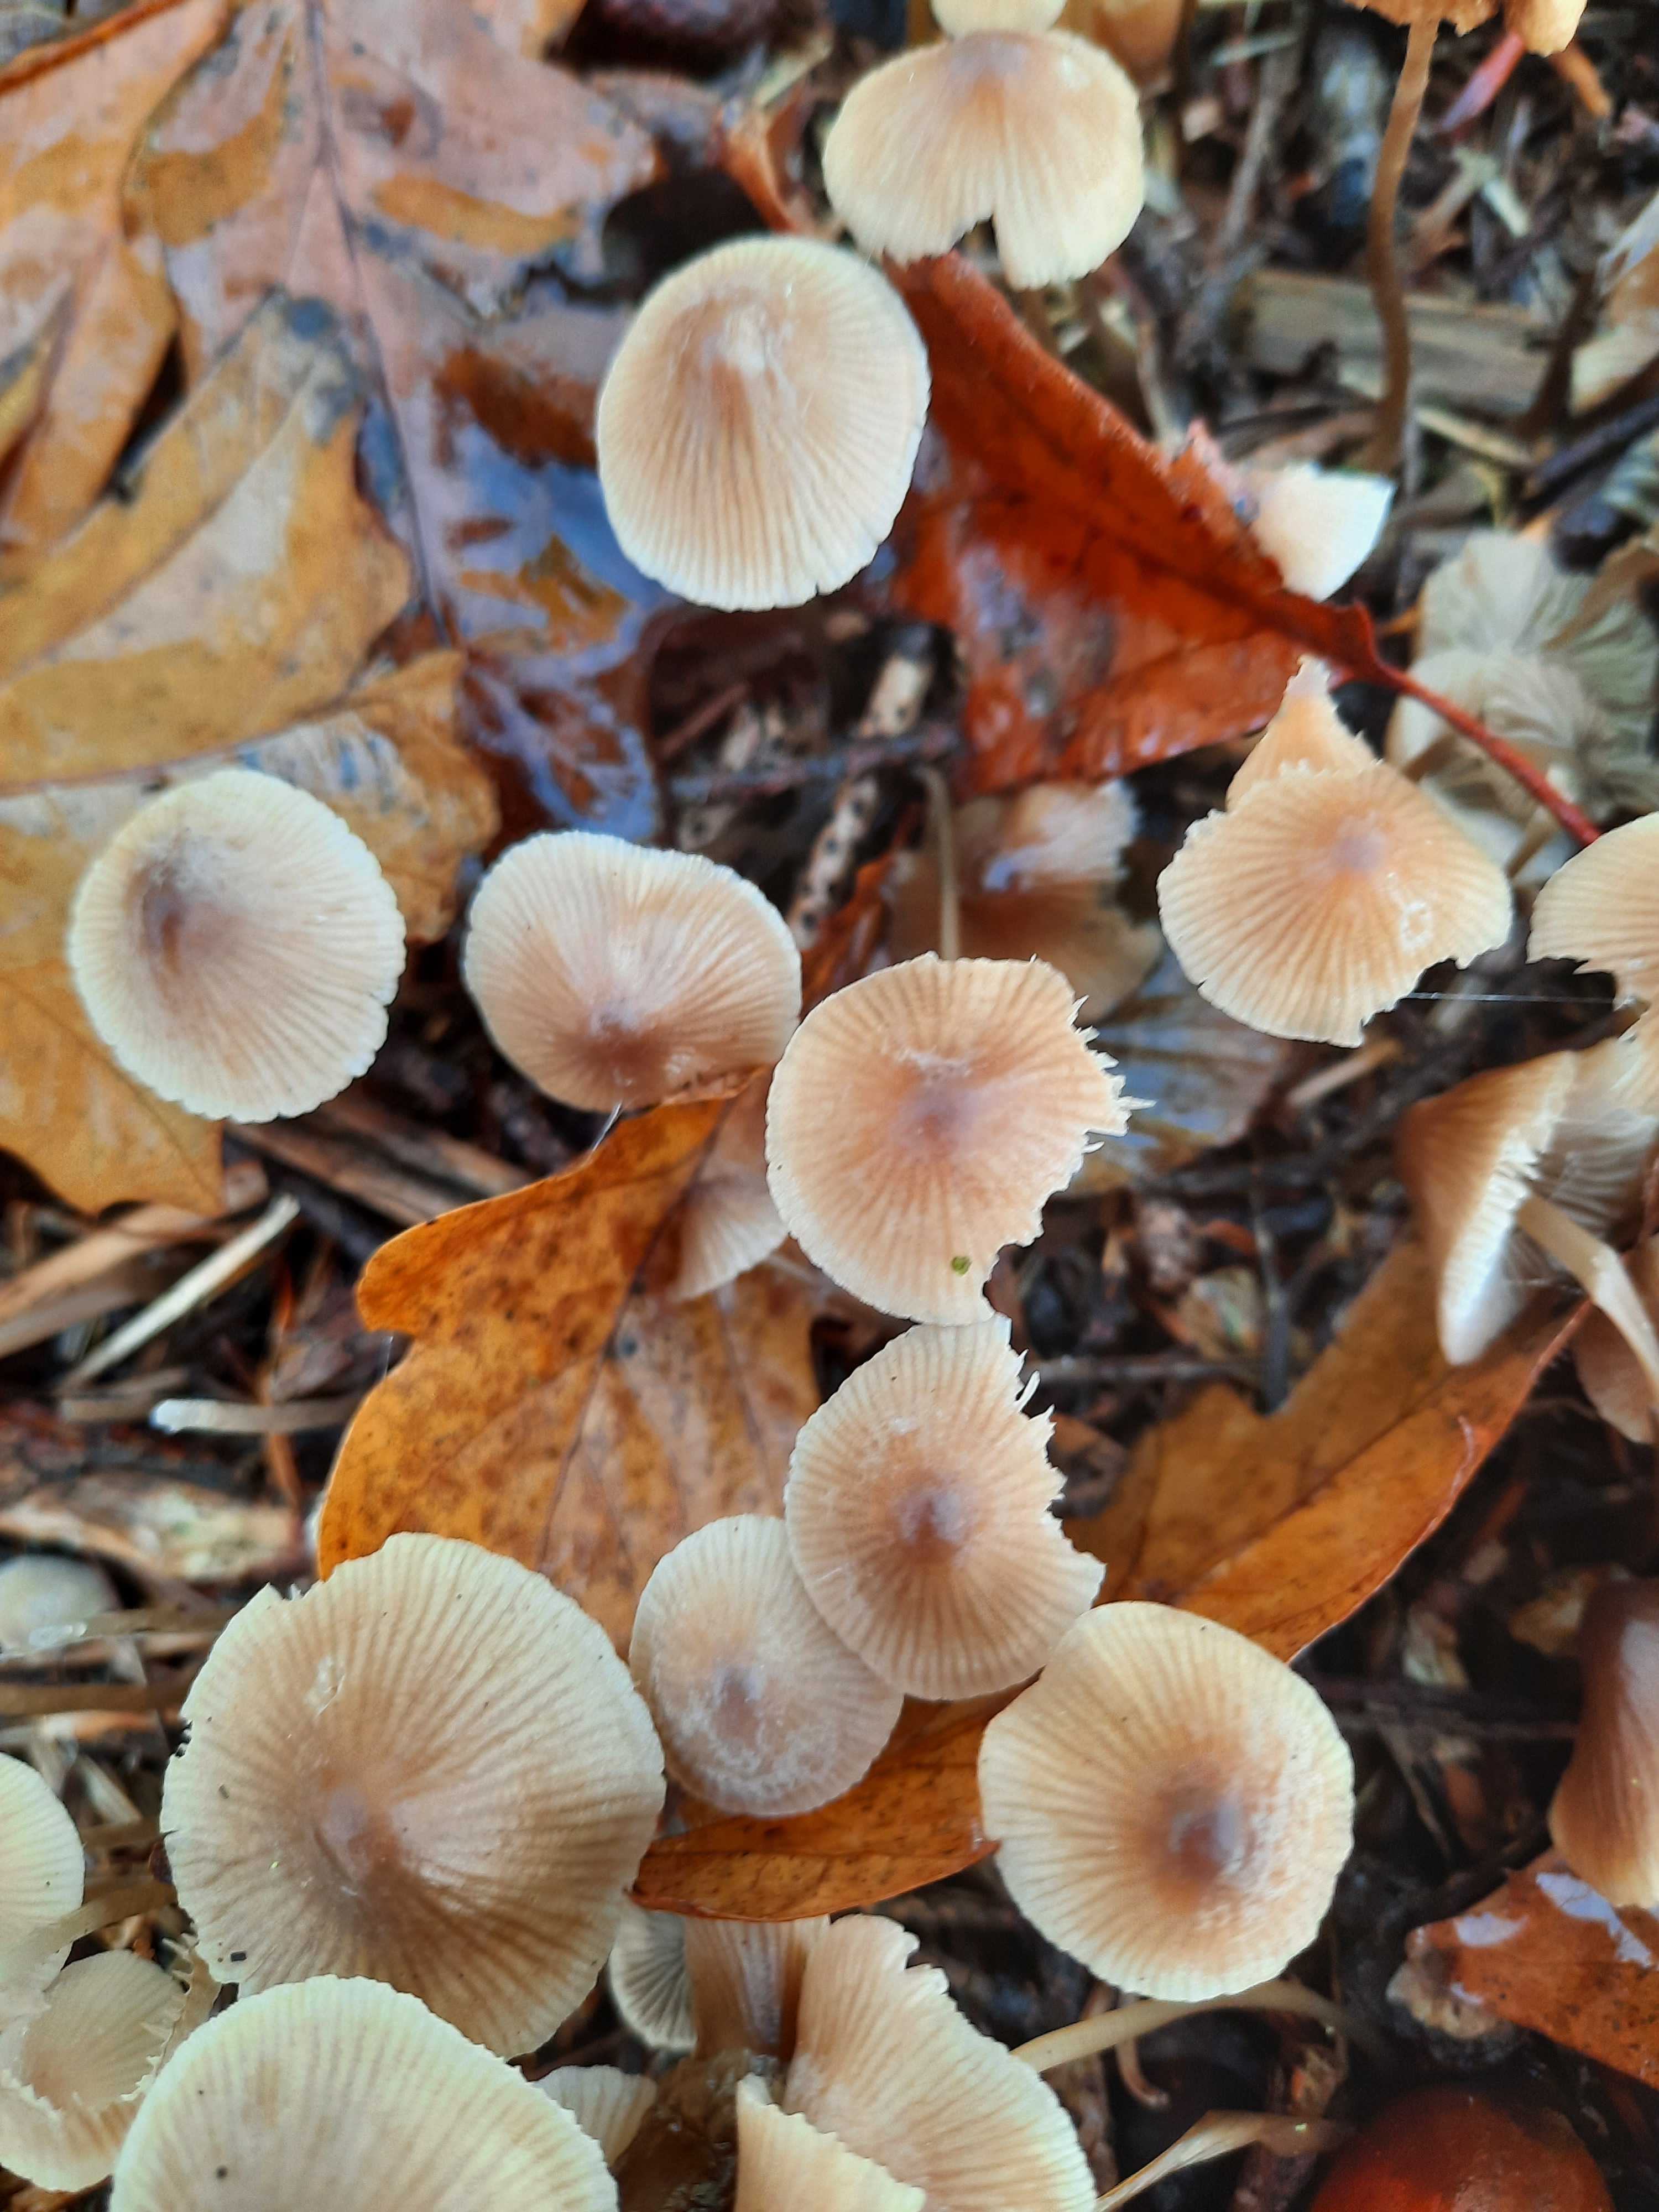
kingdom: Fungi
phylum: Basidiomycota
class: Agaricomycetes
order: Agaricales
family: Mycenaceae
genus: Mycena
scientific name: Mycena
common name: huesvamp
